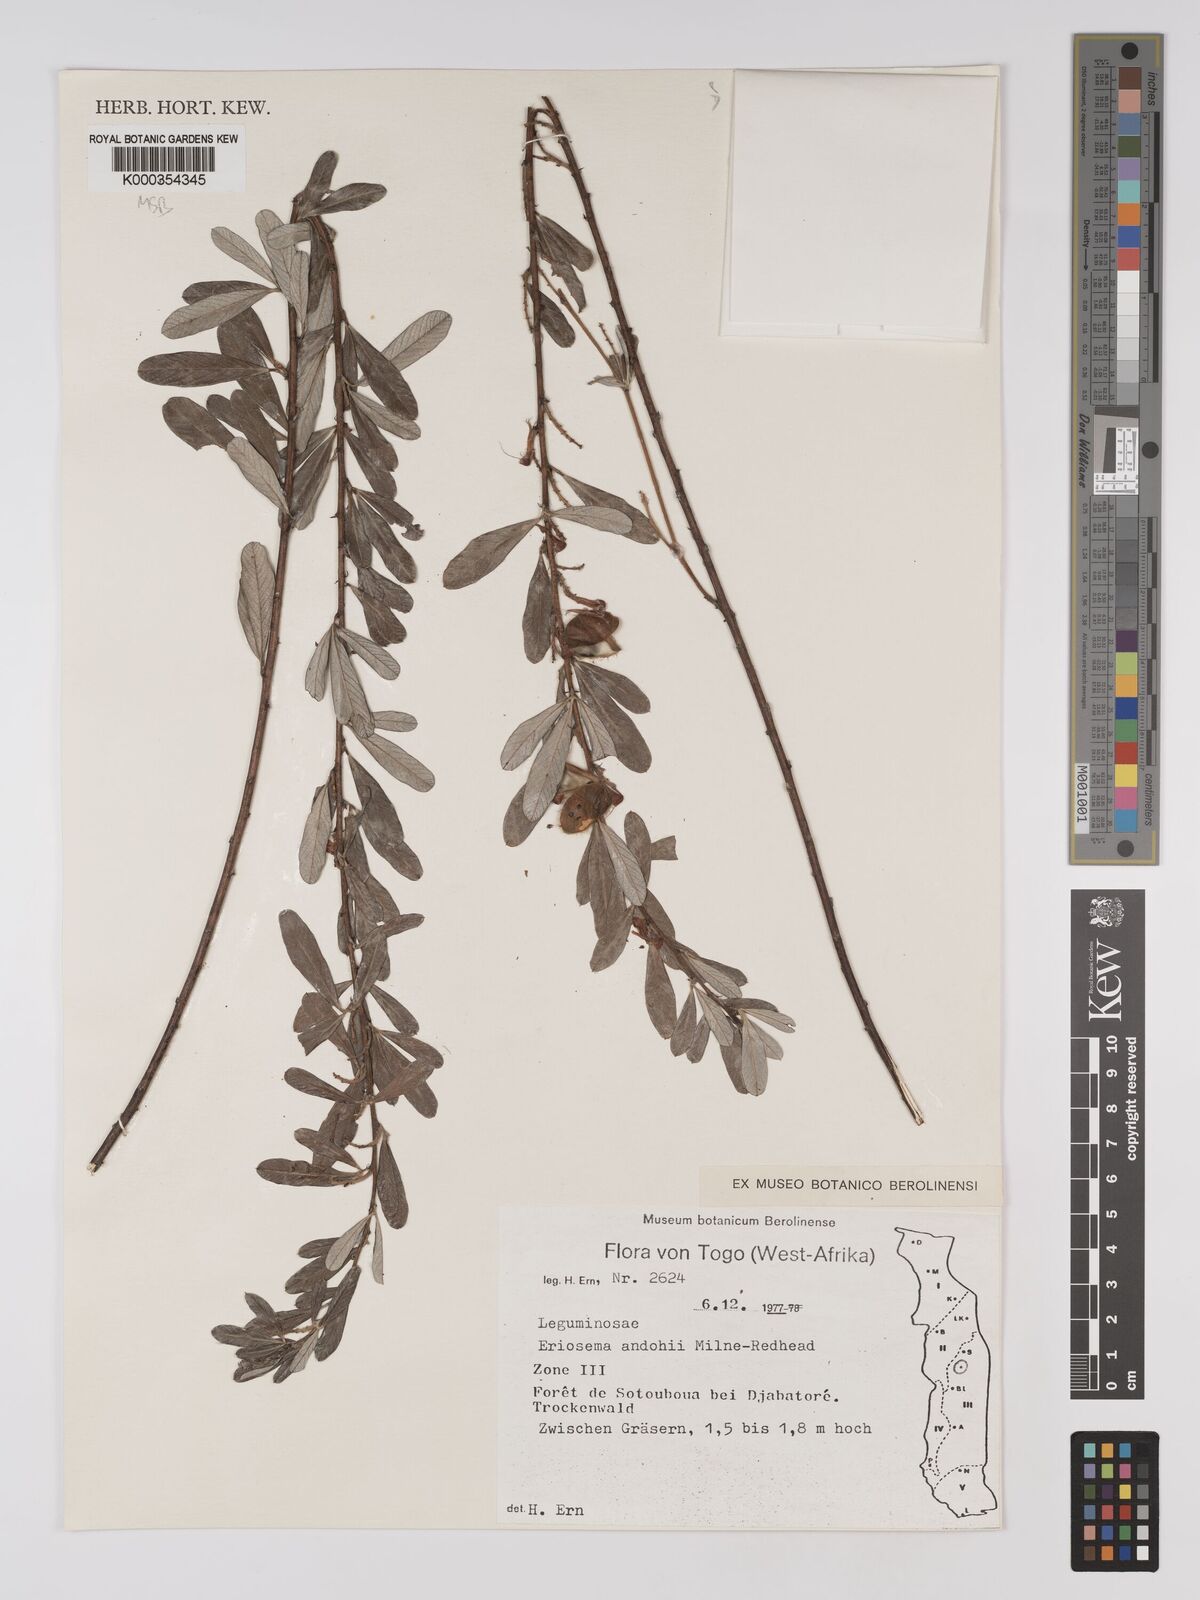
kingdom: Plantae
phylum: Tracheophyta
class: Magnoliopsida
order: Fabales
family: Fabaceae
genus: Eriosema
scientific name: Eriosema andohii
